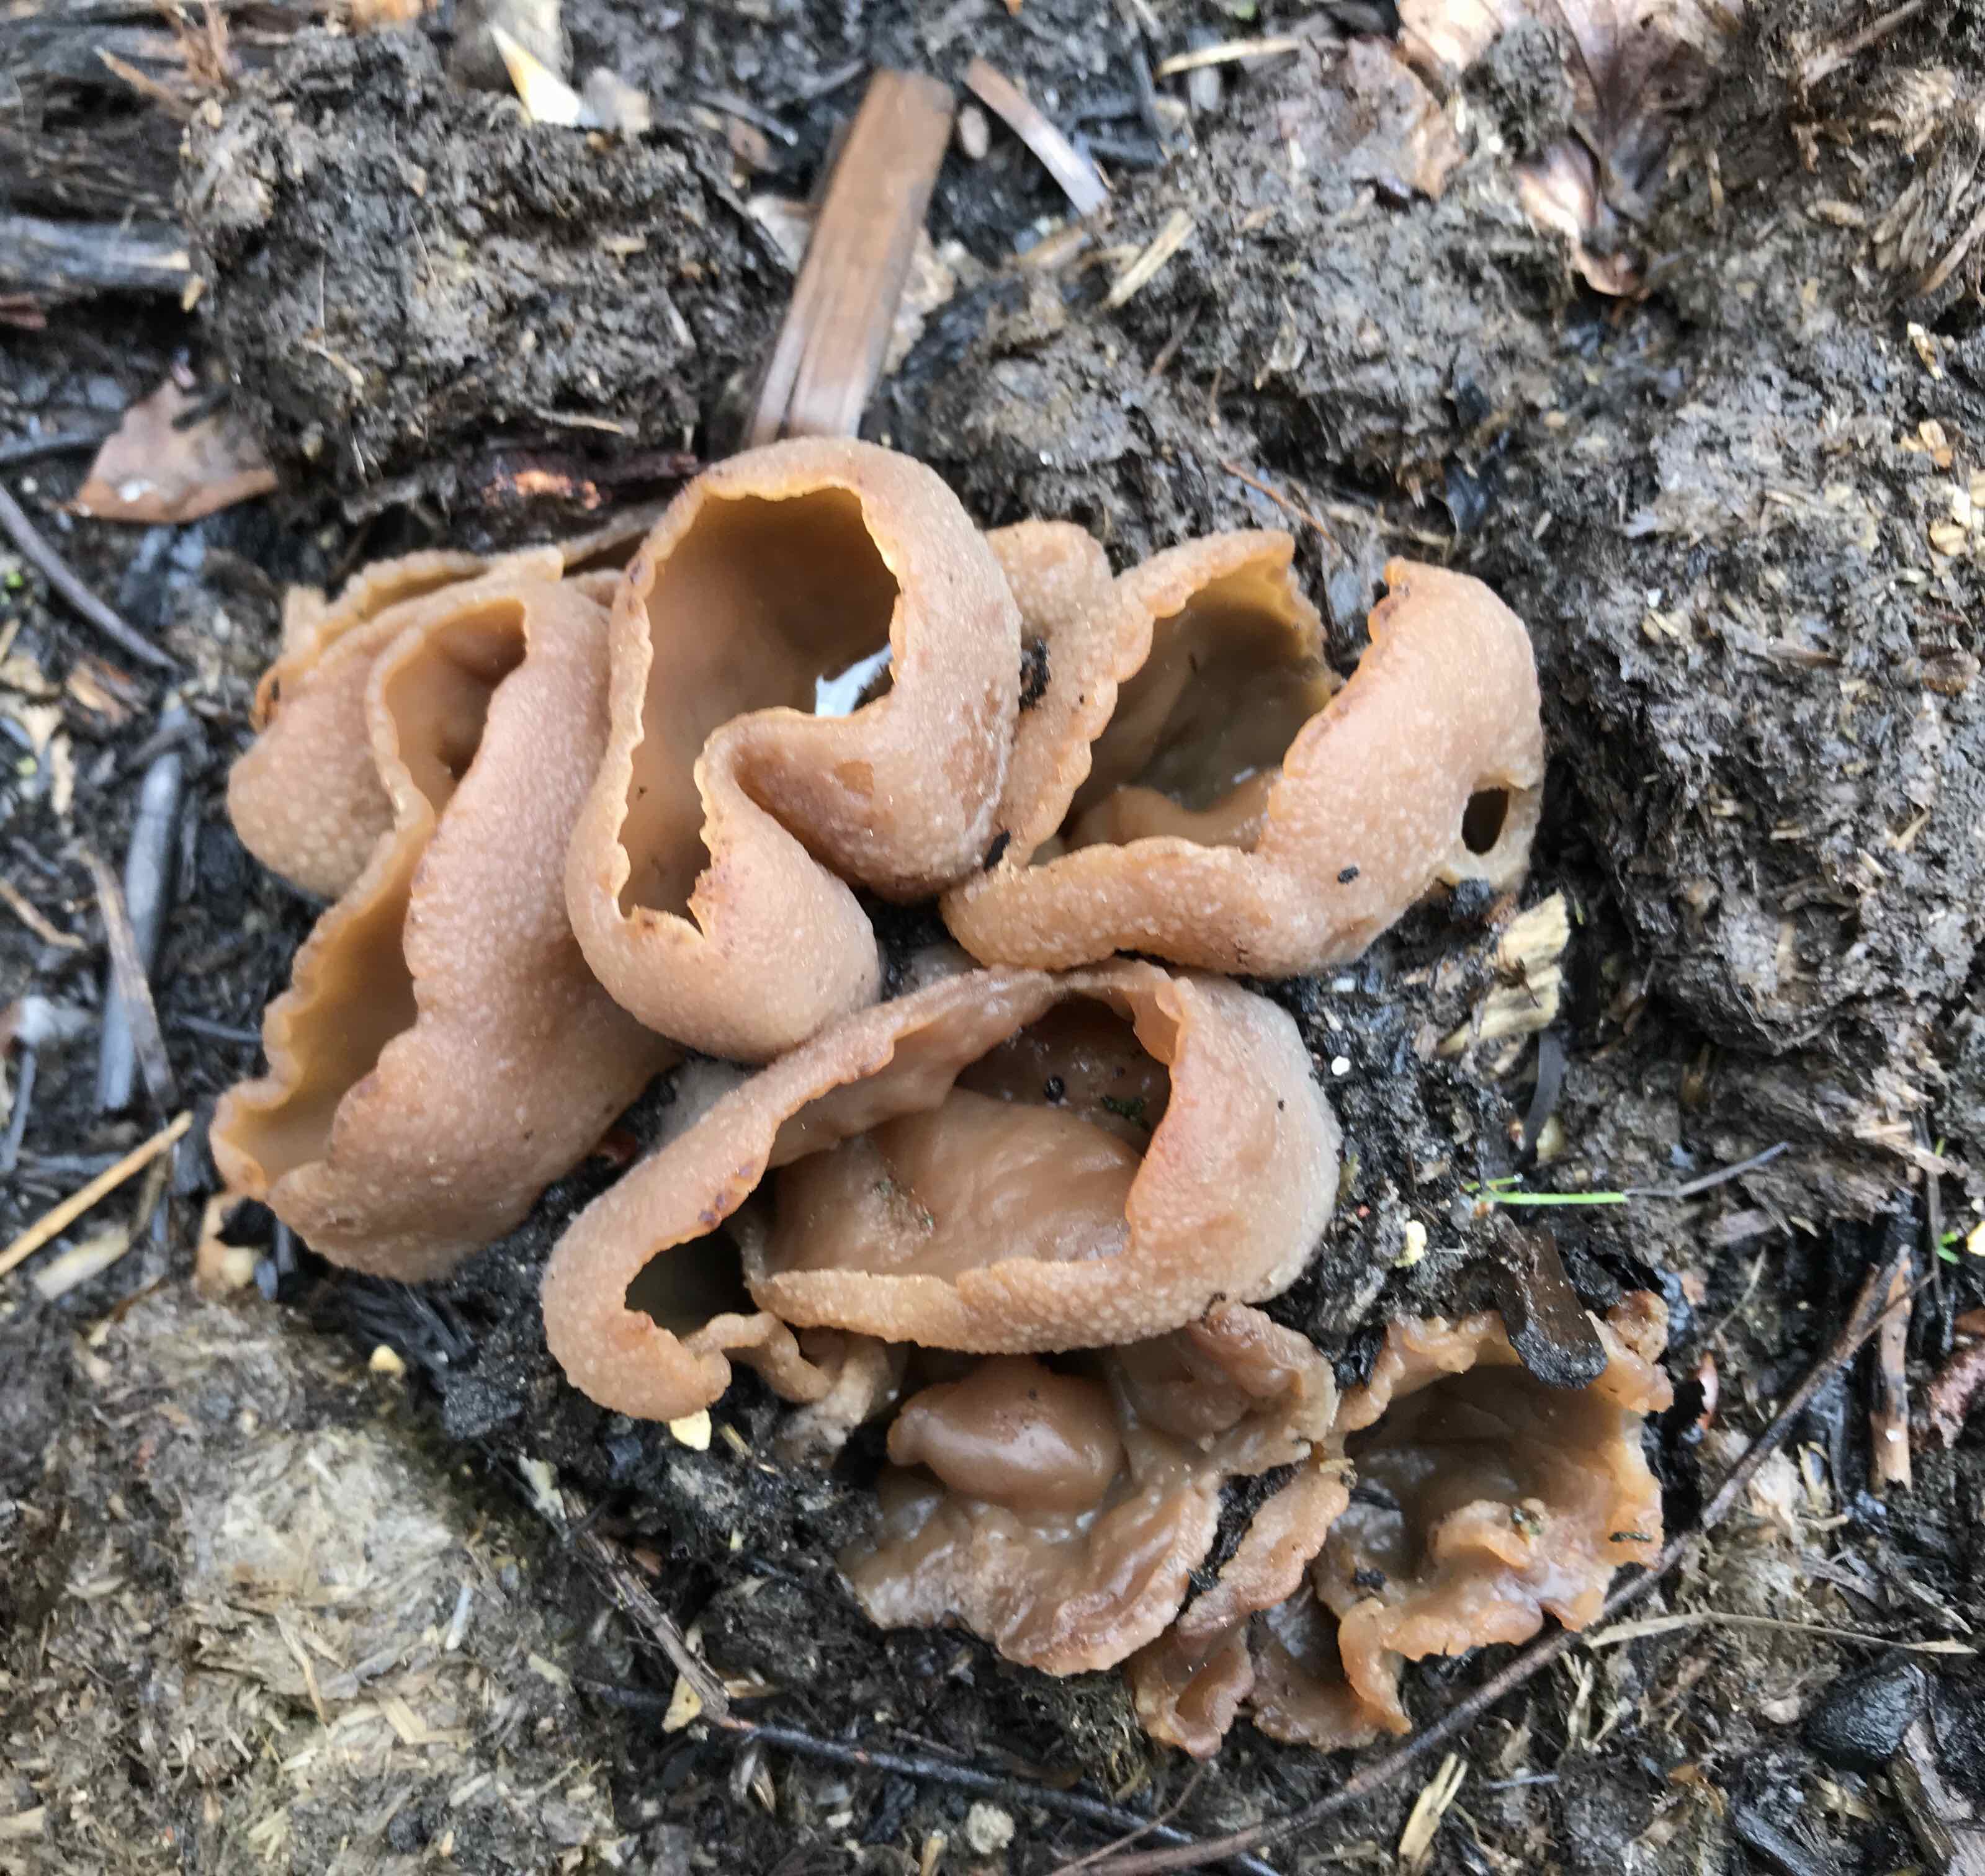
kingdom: Fungi
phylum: Ascomycota
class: Pezizomycetes
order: Pezizales
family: Pezizaceae
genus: Peziza
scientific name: Peziza vesiculosa
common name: blære-bægersvamp
